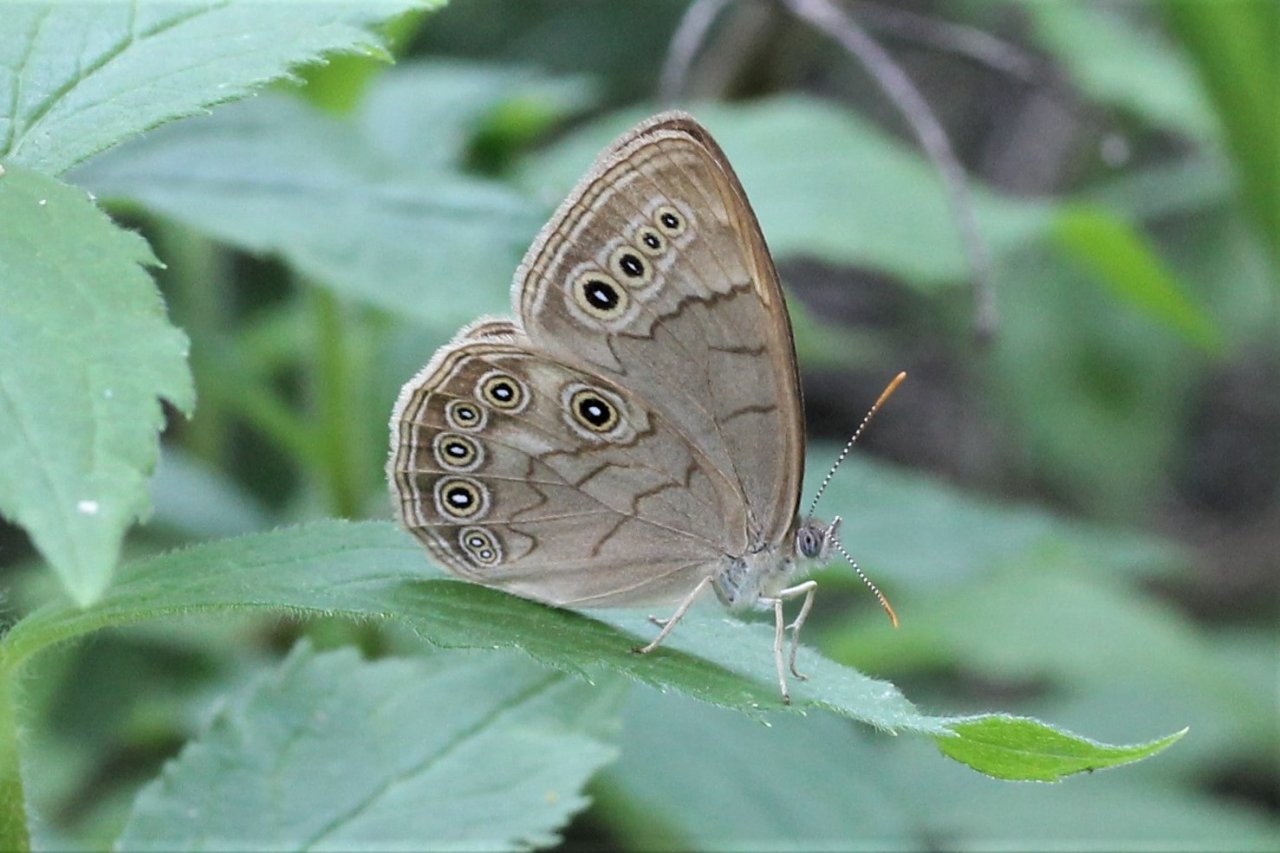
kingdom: Animalia
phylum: Arthropoda
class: Insecta
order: Lepidoptera
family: Nymphalidae
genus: Lethe
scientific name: Lethe eurydice
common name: Eyed Brown
